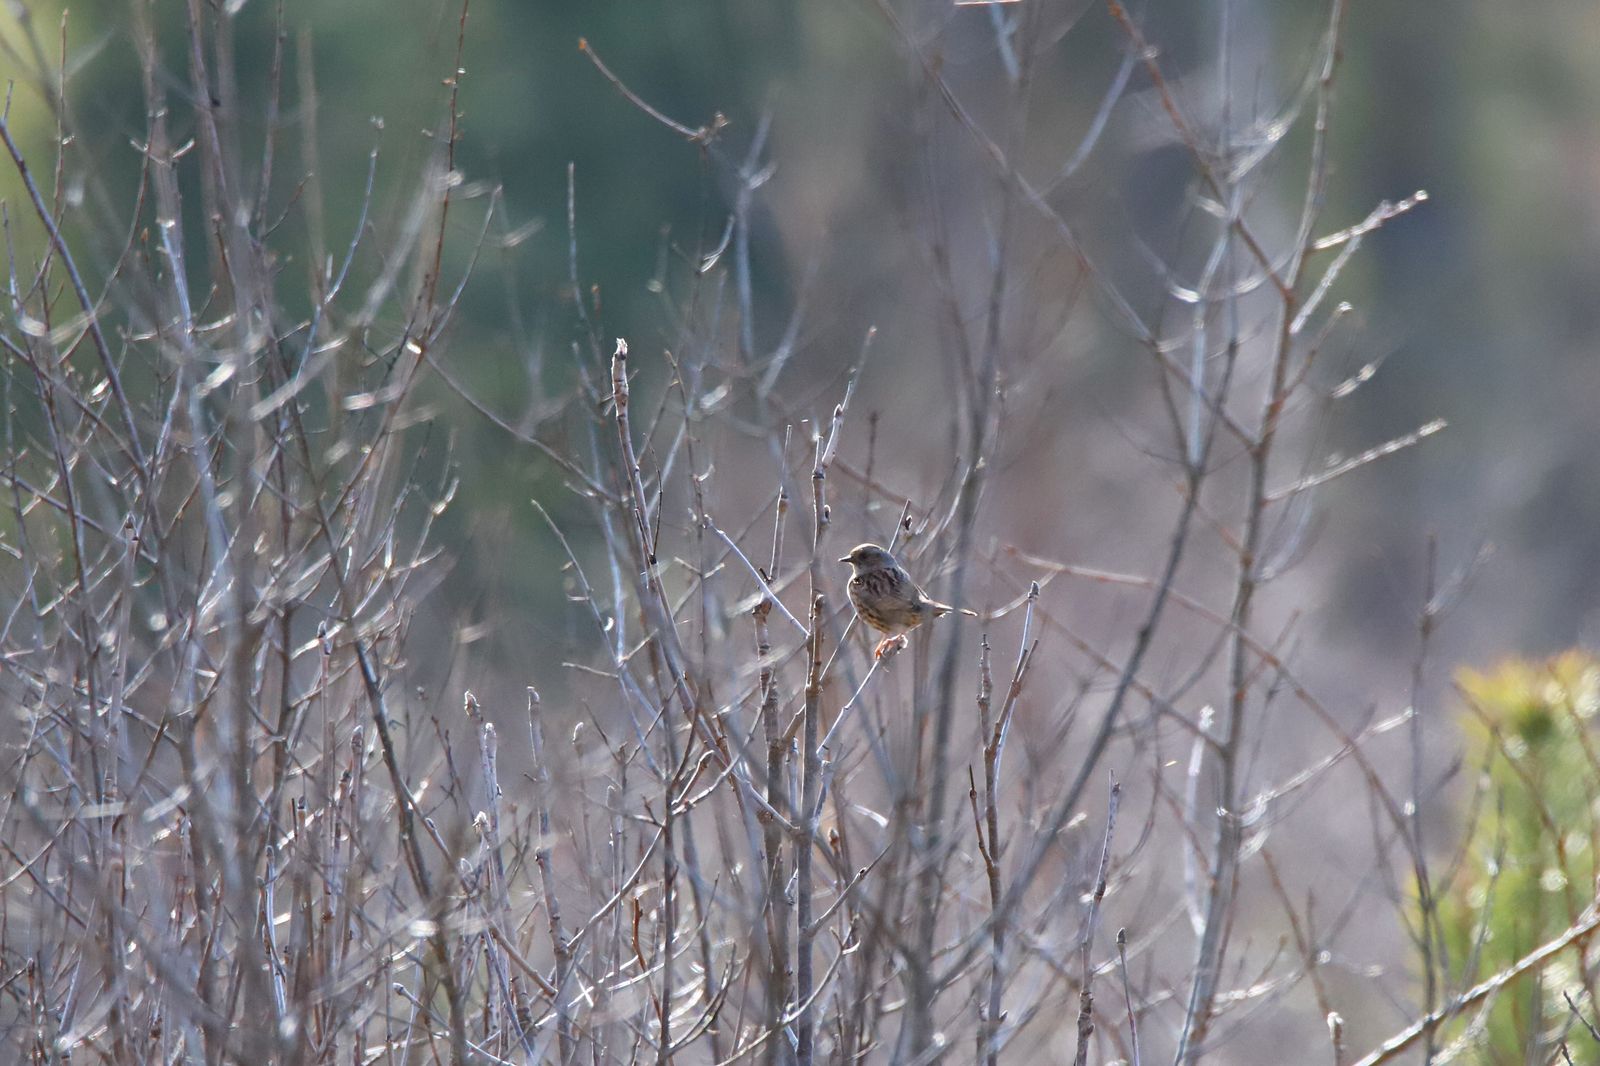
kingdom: Animalia
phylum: Chordata
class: Aves
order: Passeriformes
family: Prunellidae
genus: Prunella
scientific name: Prunella modularis
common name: Dunnock
